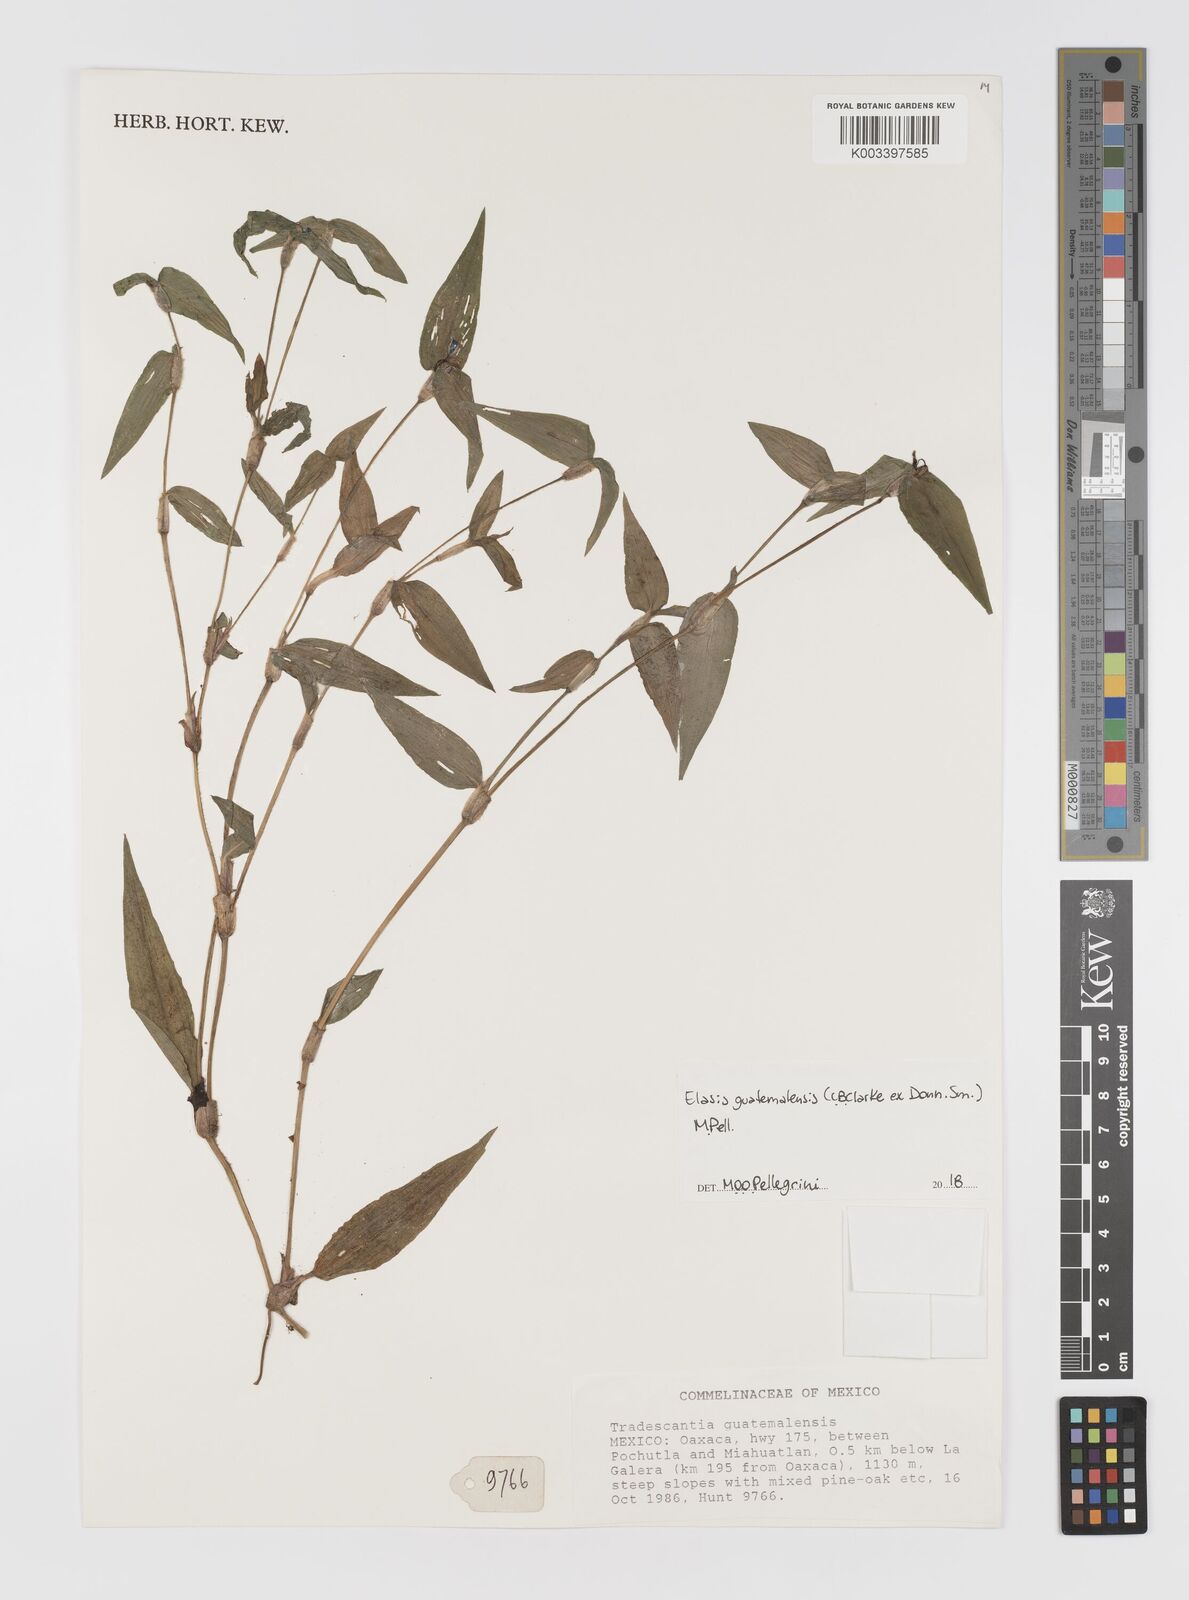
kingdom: Plantae
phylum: Tracheophyta
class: Liliopsida
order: Commelinales
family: Commelinaceae
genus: Elasis
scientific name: Elasis guatemalensis
